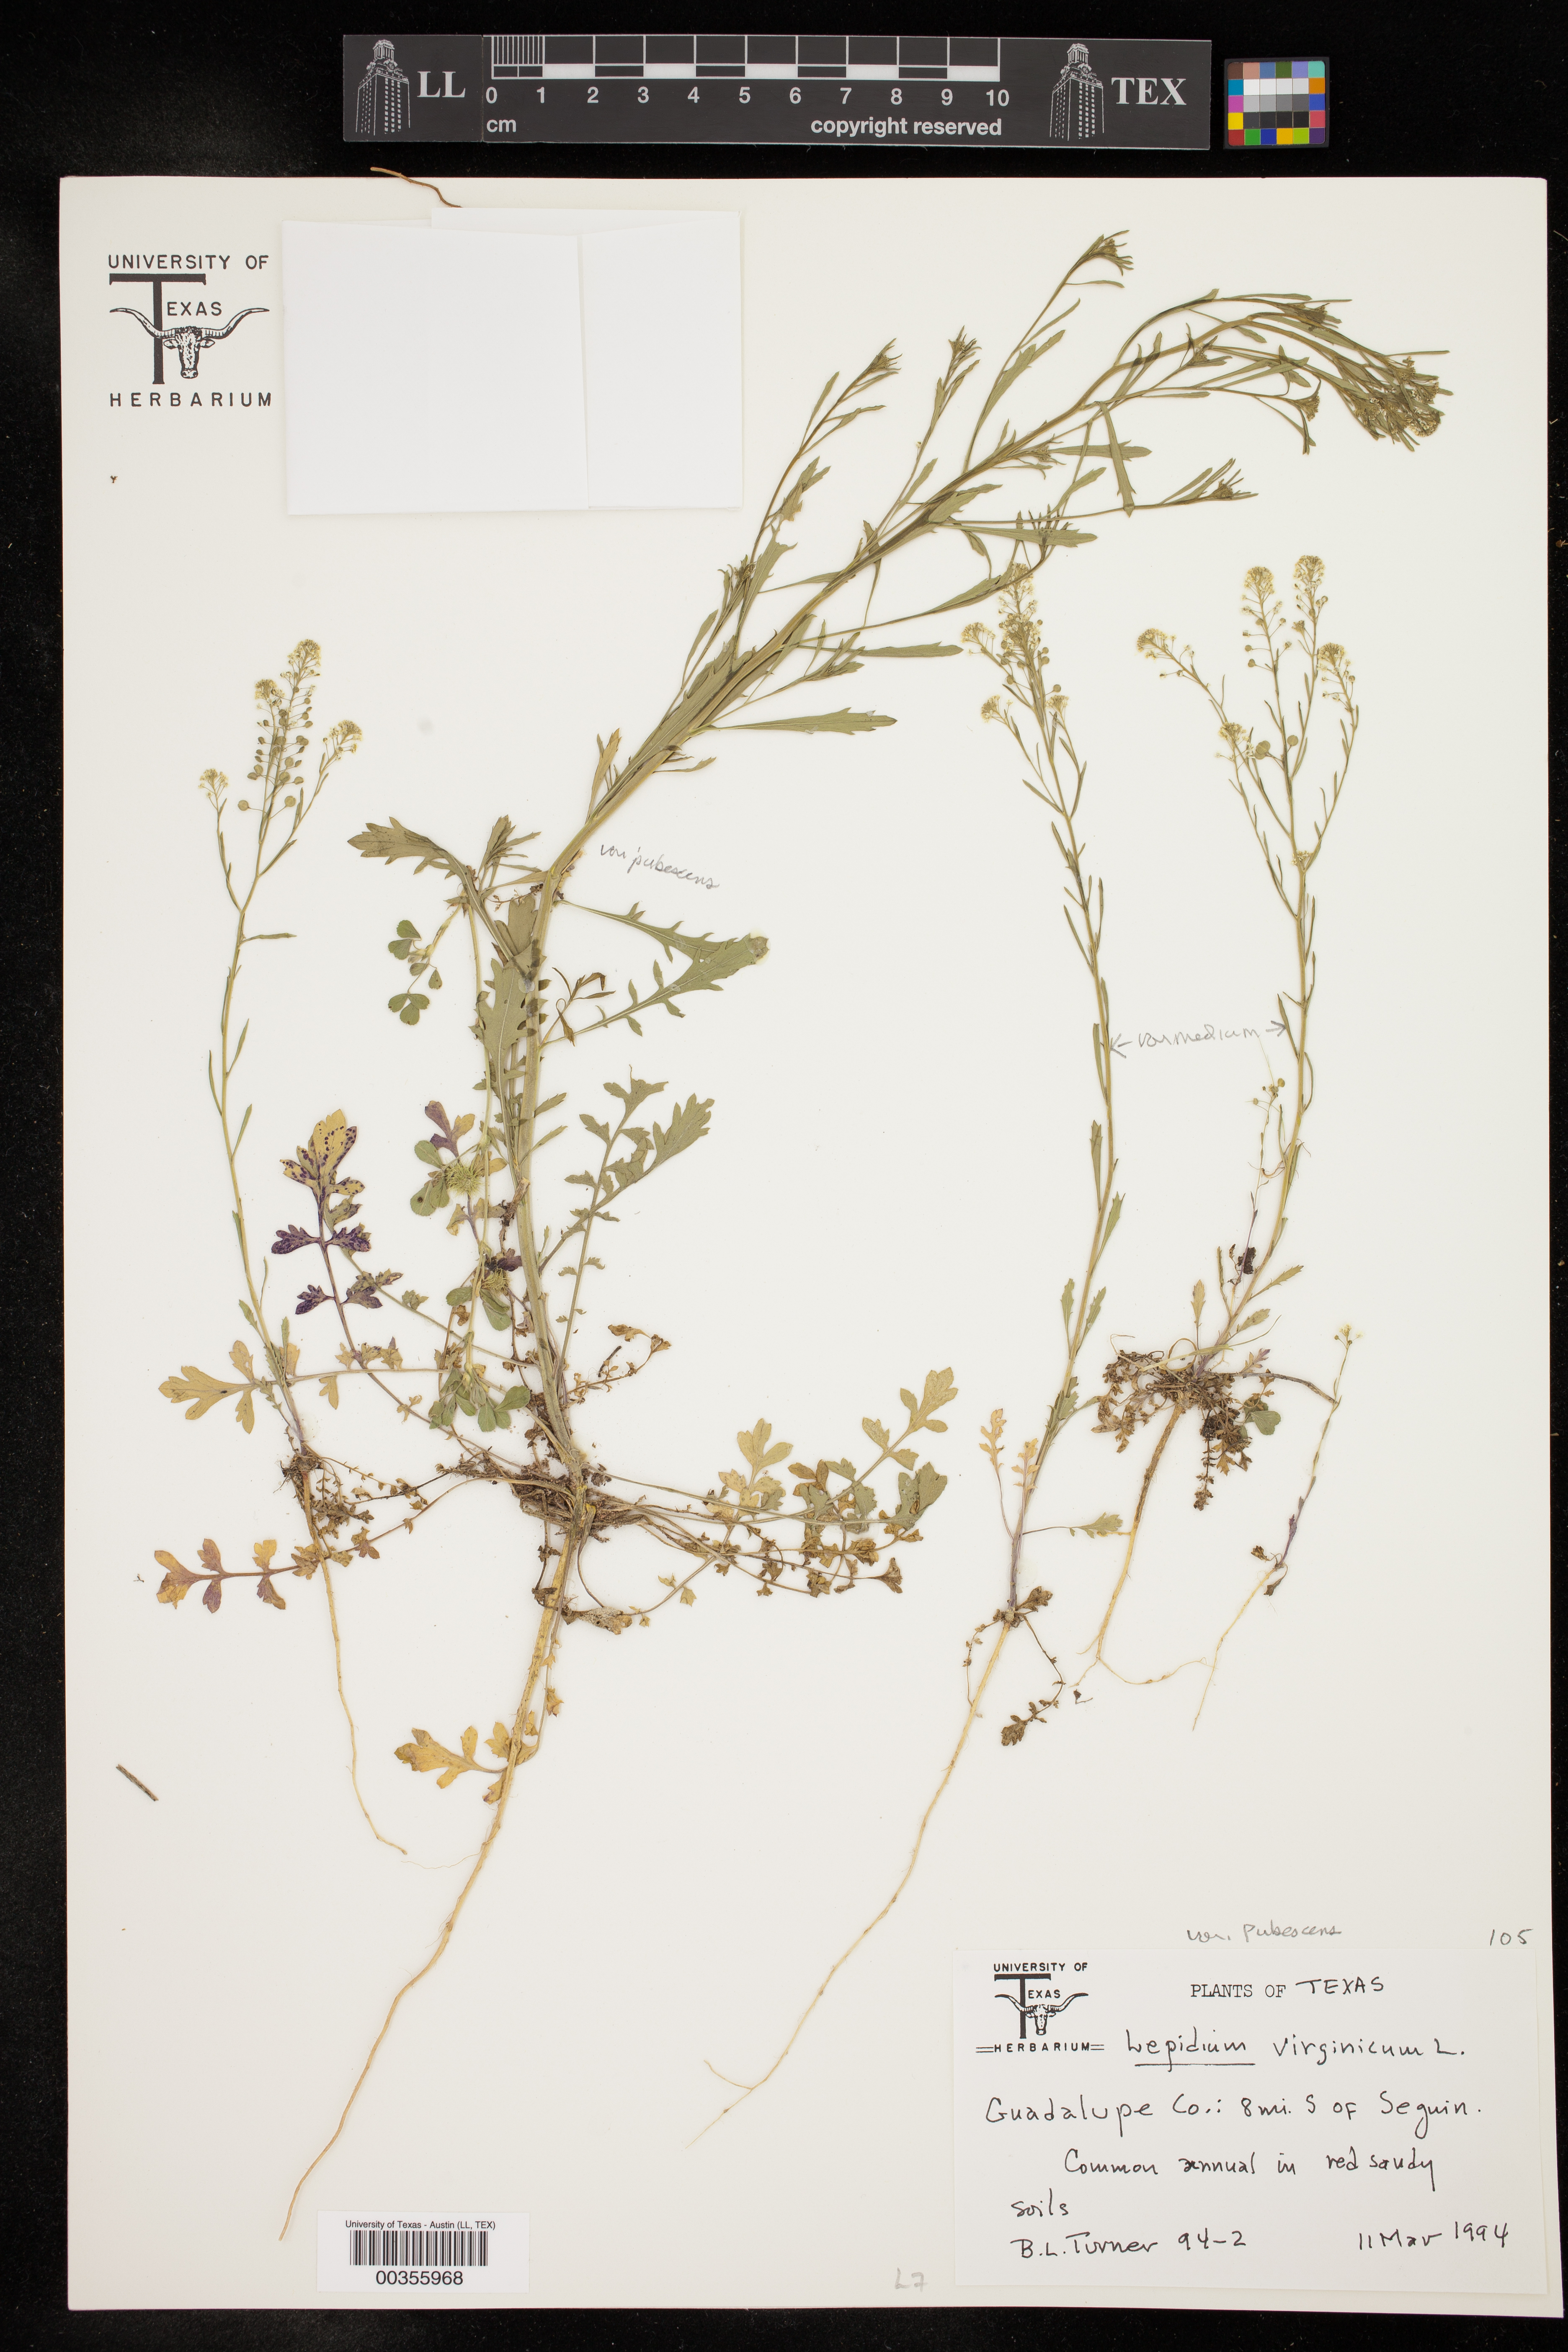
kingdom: Plantae
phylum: Tracheophyta
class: Magnoliopsida
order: Brassicales
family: Brassicaceae
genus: Lepidium
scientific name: Lepidium virginicum
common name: Least pepperwort
